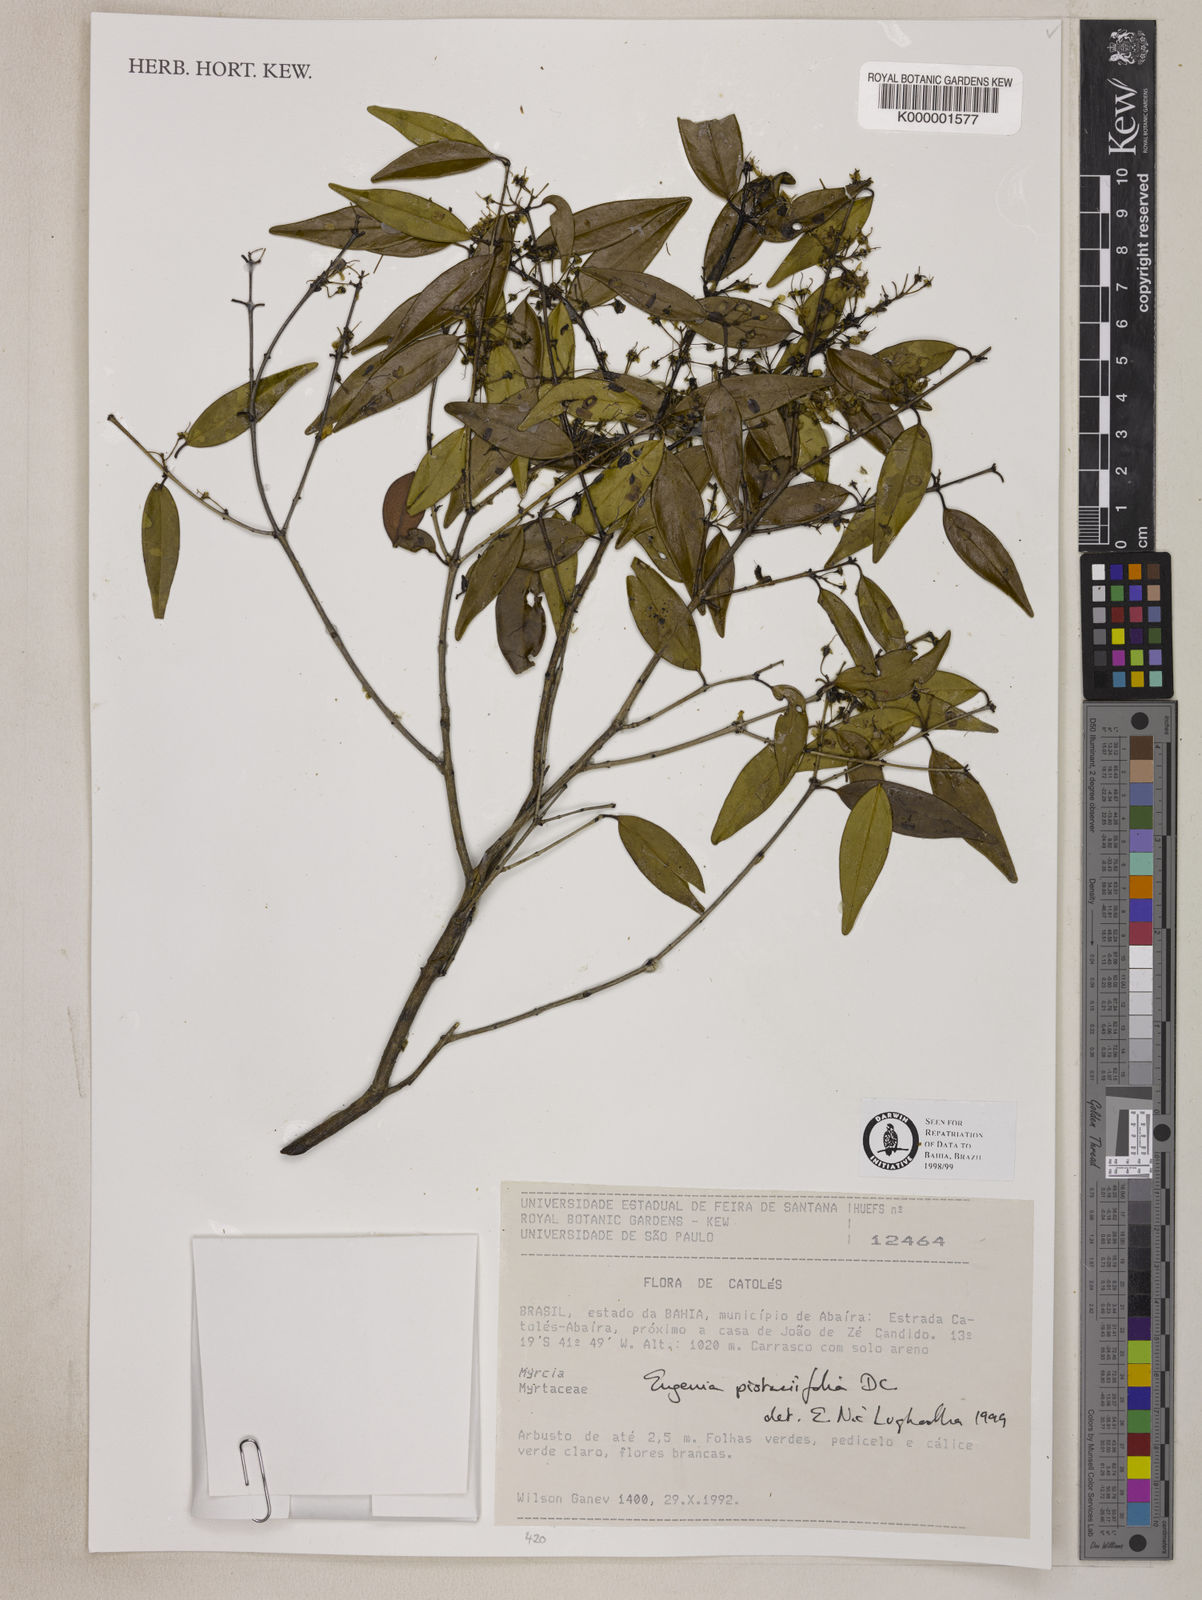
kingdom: Plantae
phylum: Tracheophyta
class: Magnoliopsida
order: Myrtales
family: Myrtaceae
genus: Eugenia
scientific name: Eugenia pistaciifolia
